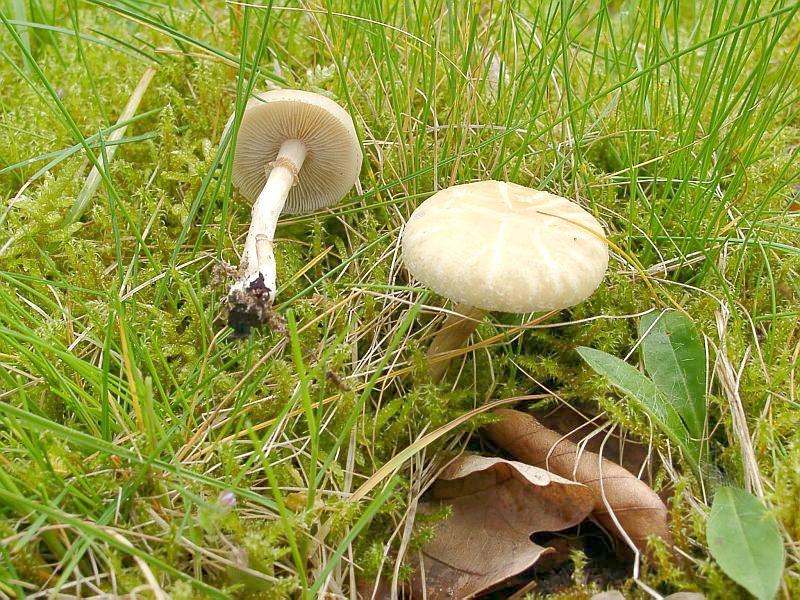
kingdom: Fungi
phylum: Basidiomycota
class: Agaricomycetes
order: Agaricales
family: Strophariaceae
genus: Agrocybe
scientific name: Agrocybe praecox
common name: Spring fieldcap
